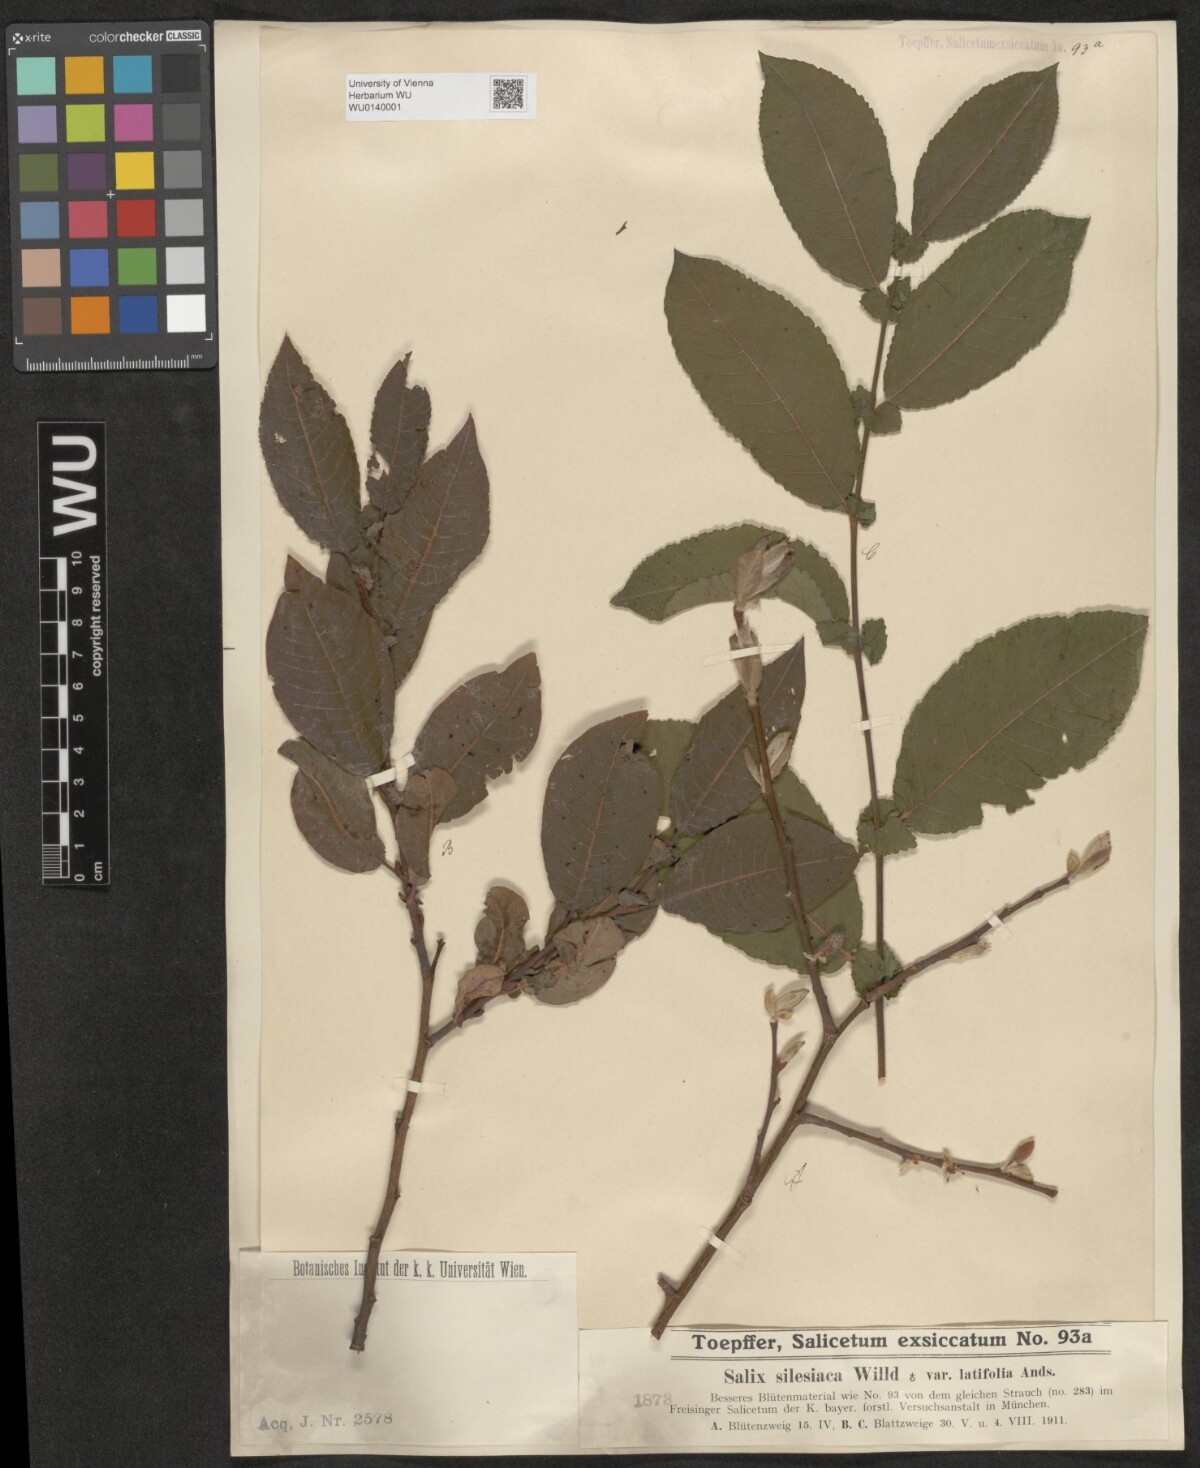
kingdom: Plantae
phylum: Tracheophyta
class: Magnoliopsida
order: Malpighiales
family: Salicaceae
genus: Salix
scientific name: Salix silesiaca
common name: Silesian willow
